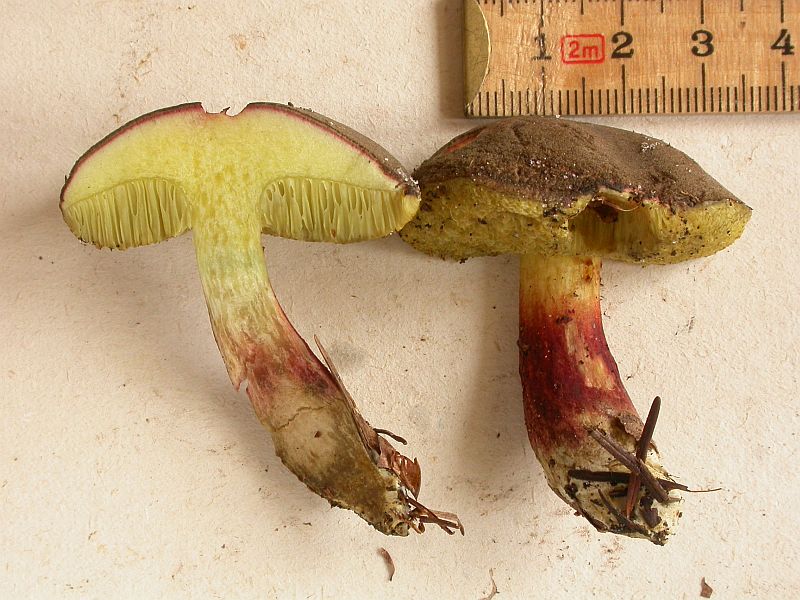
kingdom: Fungi
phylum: Basidiomycota
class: Agaricomycetes
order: Boletales
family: Boletaceae
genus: Xerocomellus
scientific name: Xerocomellus chrysenteron
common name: rødsprukken rørhat
